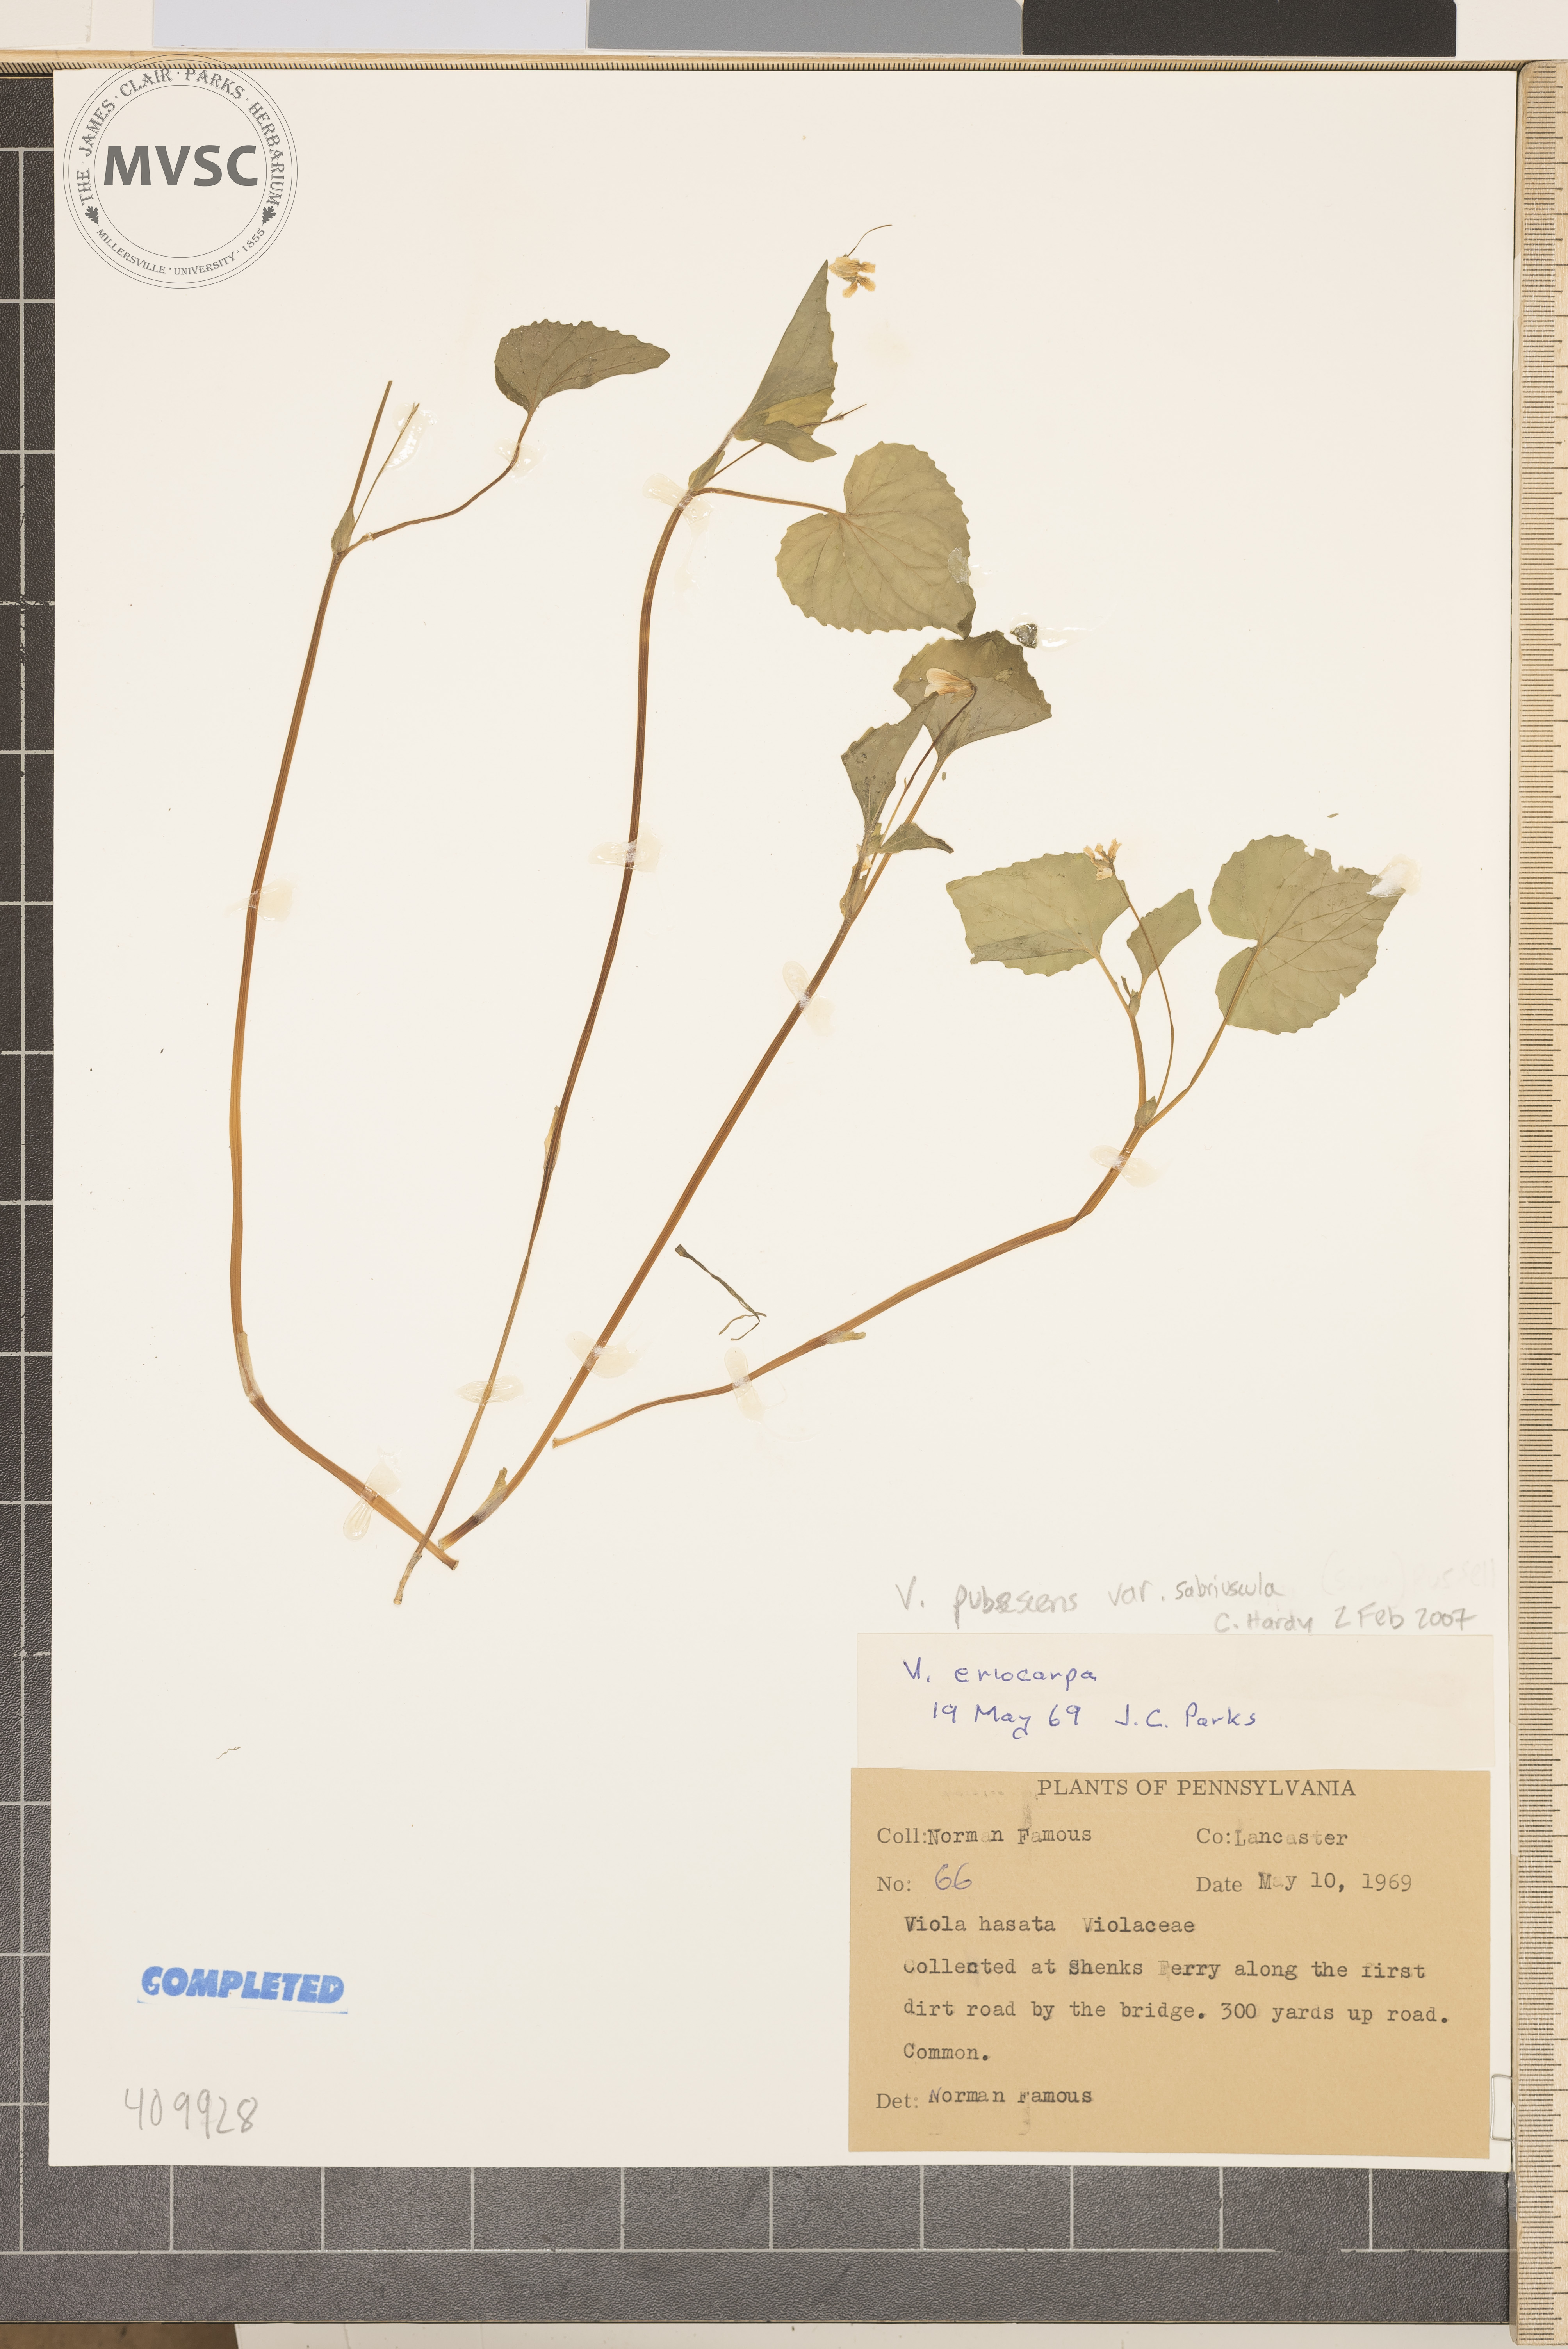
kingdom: Plantae
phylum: Tracheophyta
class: Magnoliopsida
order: Malpighiales
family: Violaceae
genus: Viola
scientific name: Viola pubescens
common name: downy yellow violet
